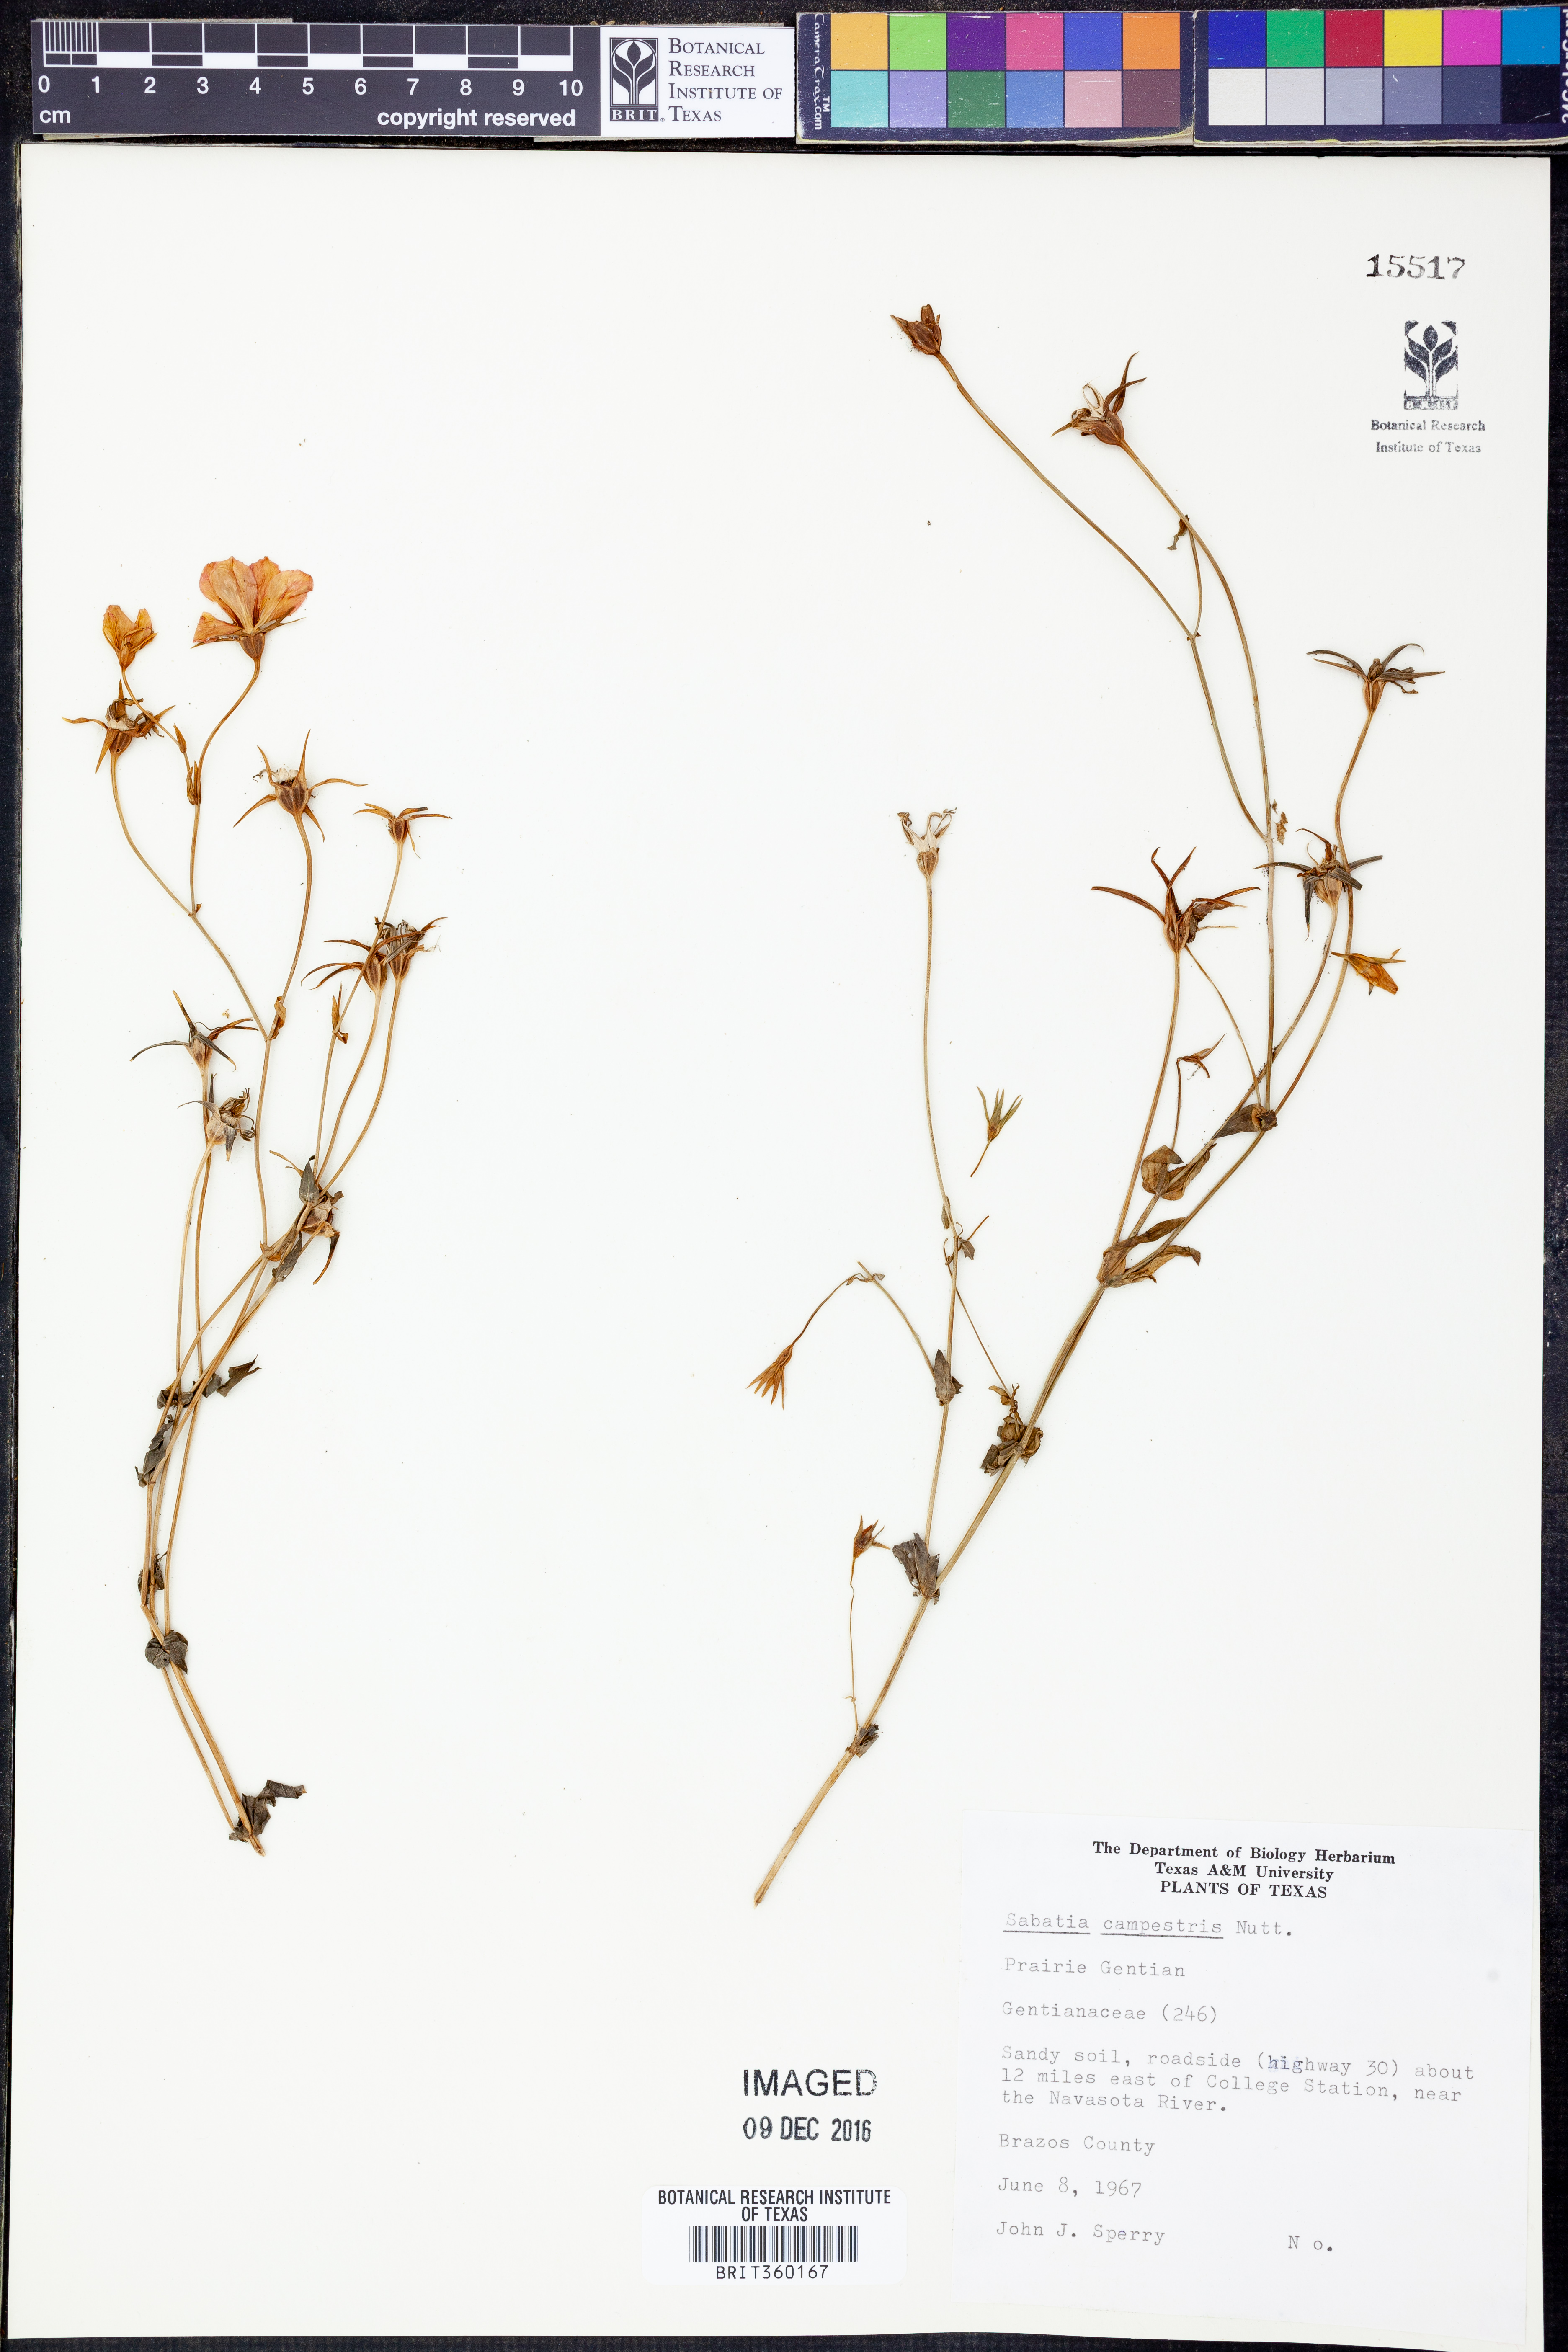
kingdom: Plantae
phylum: Tracheophyta
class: Magnoliopsida
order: Gentianales
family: Gentianaceae
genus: Sabatia
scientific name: Sabatia campestris
